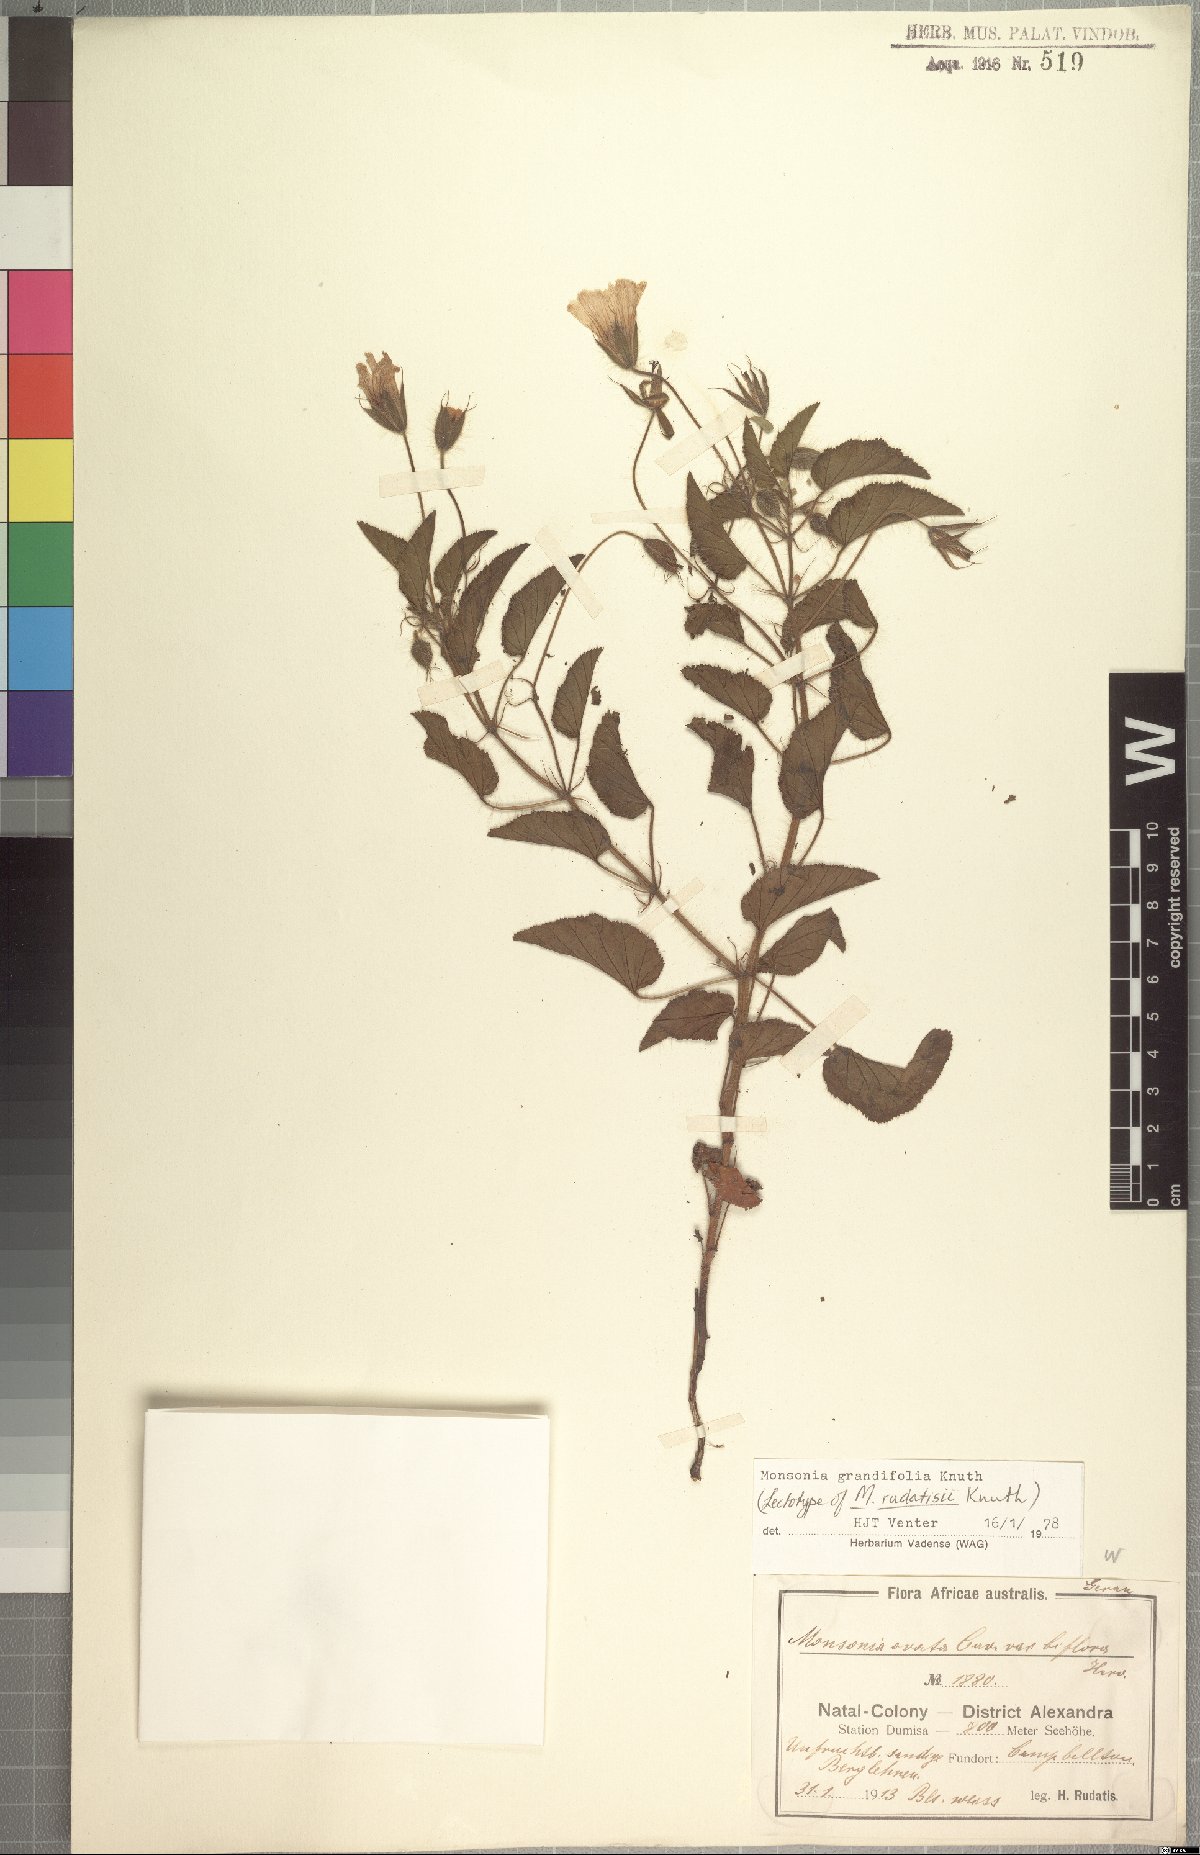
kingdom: Plantae
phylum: Tracheophyta
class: Magnoliopsida
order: Geraniales
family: Geraniaceae
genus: Monsonia
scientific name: Monsonia grandifolia
